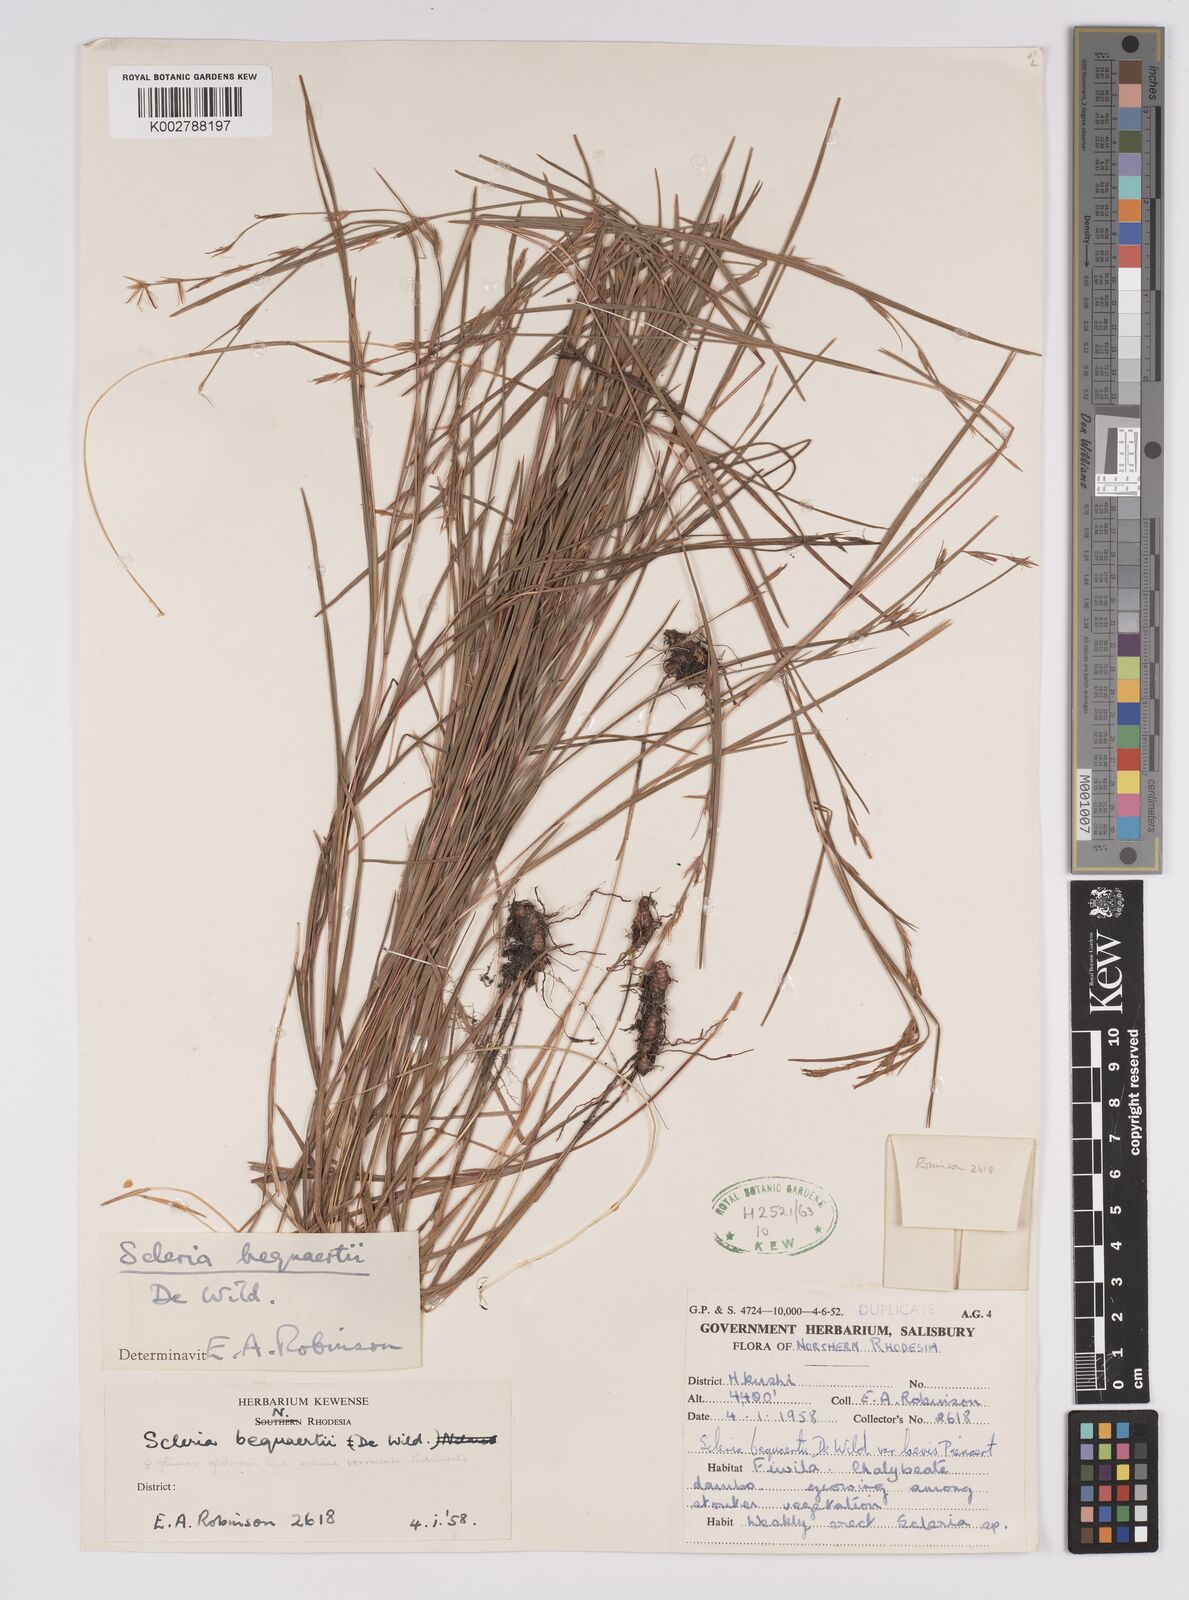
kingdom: Plantae
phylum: Tracheophyta
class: Liliopsida
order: Poales
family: Cyperaceae
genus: Scleria
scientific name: Scleria bequaertii
